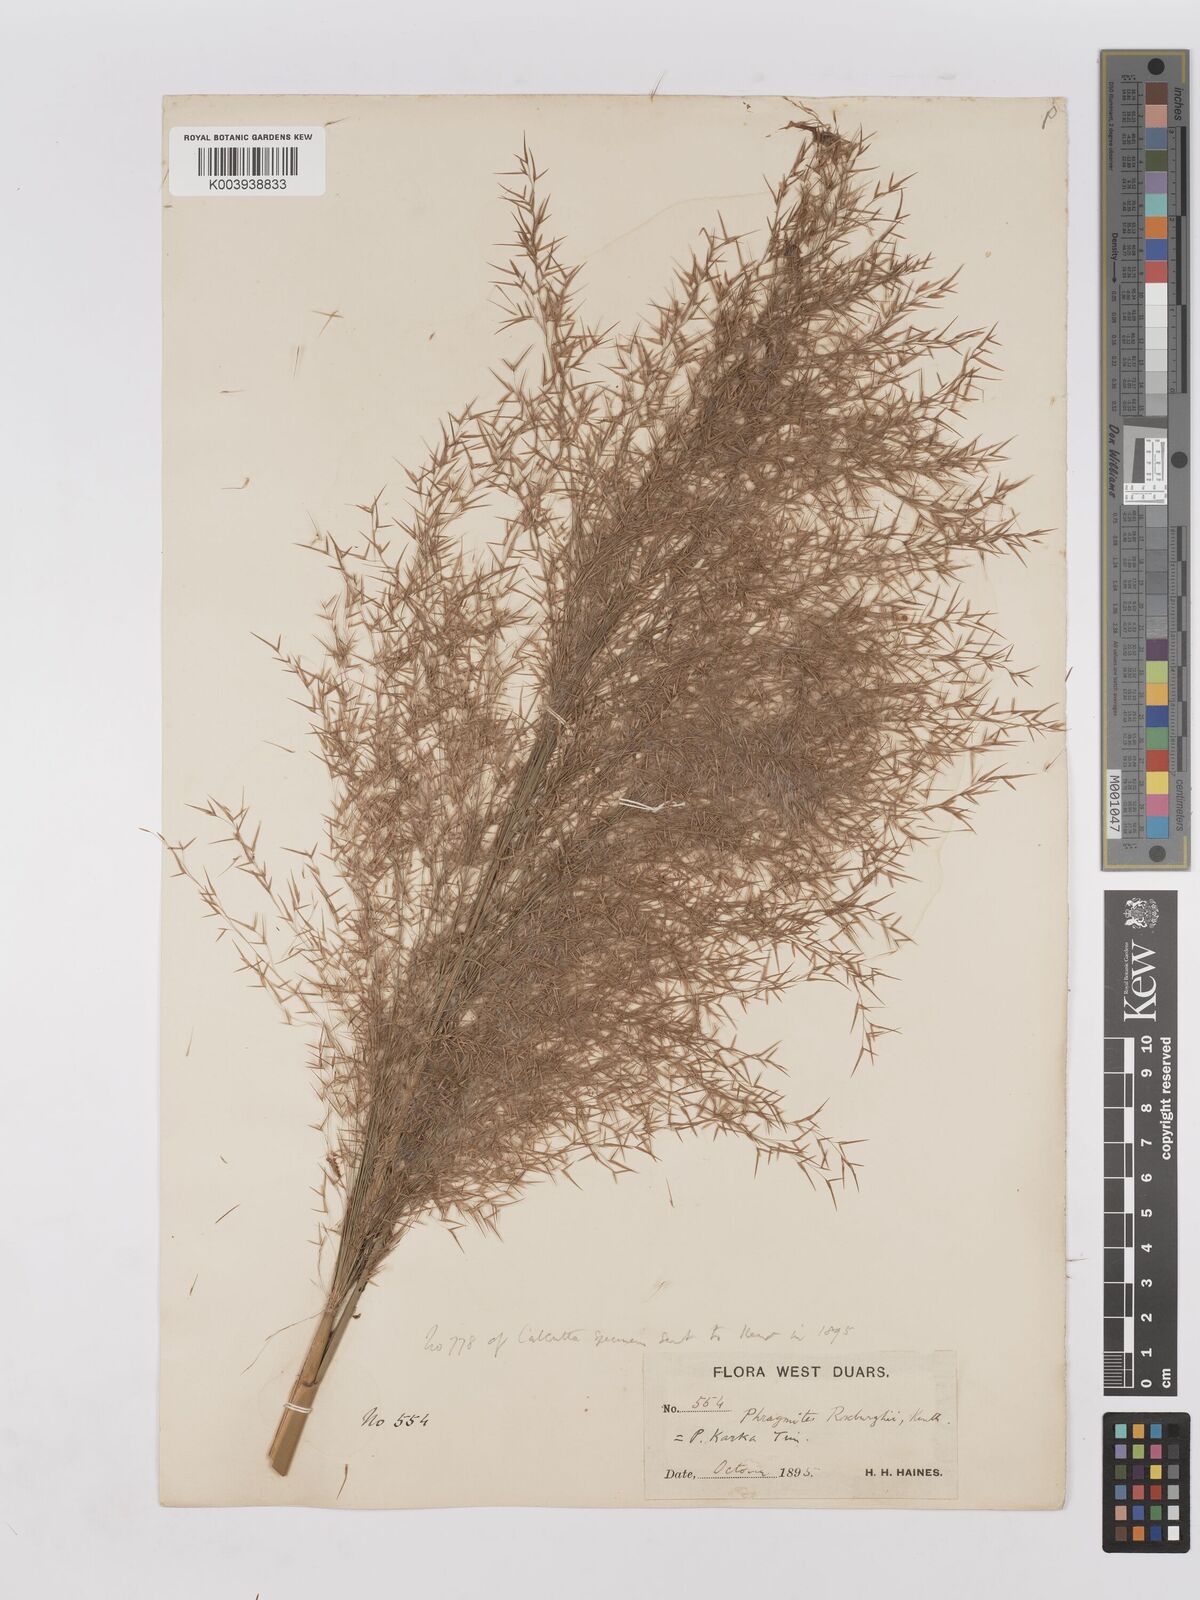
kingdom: Plantae
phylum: Tracheophyta
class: Liliopsida
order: Poales
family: Poaceae
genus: Phragmites
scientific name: Phragmites karka
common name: Tropical reed
